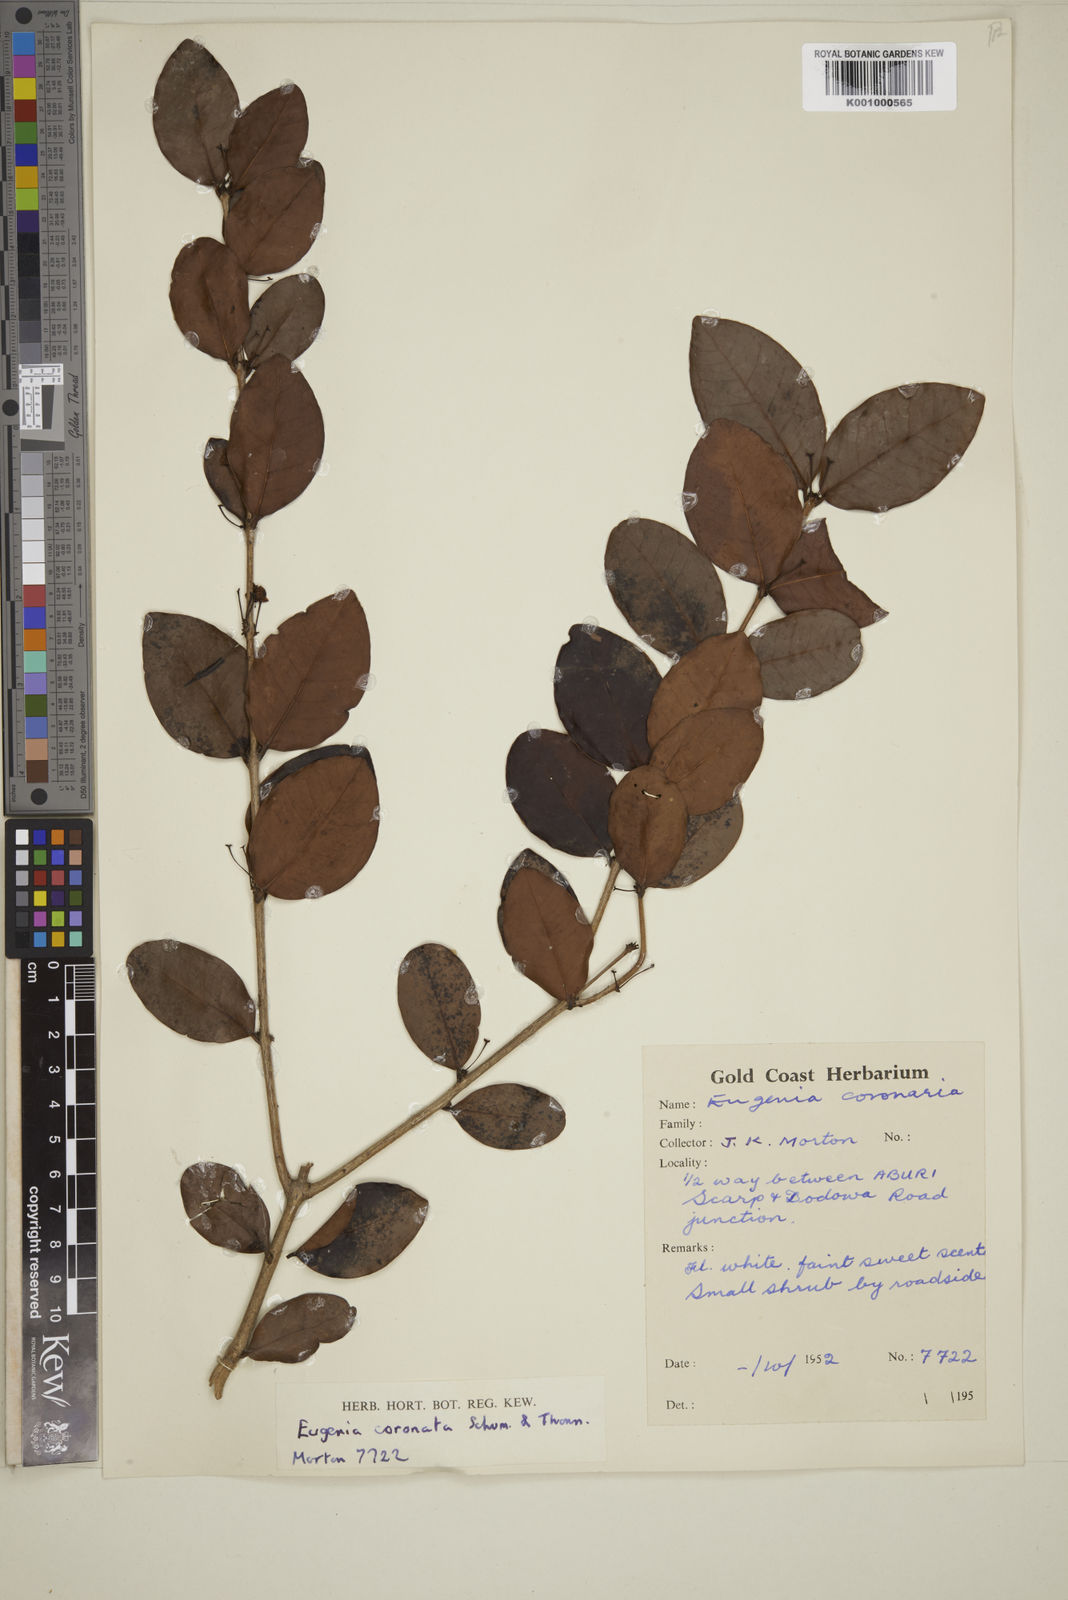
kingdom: Plantae
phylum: Tracheophyta
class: Magnoliopsida
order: Myrtales
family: Myrtaceae
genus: Eugenia
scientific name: Eugenia coronata
